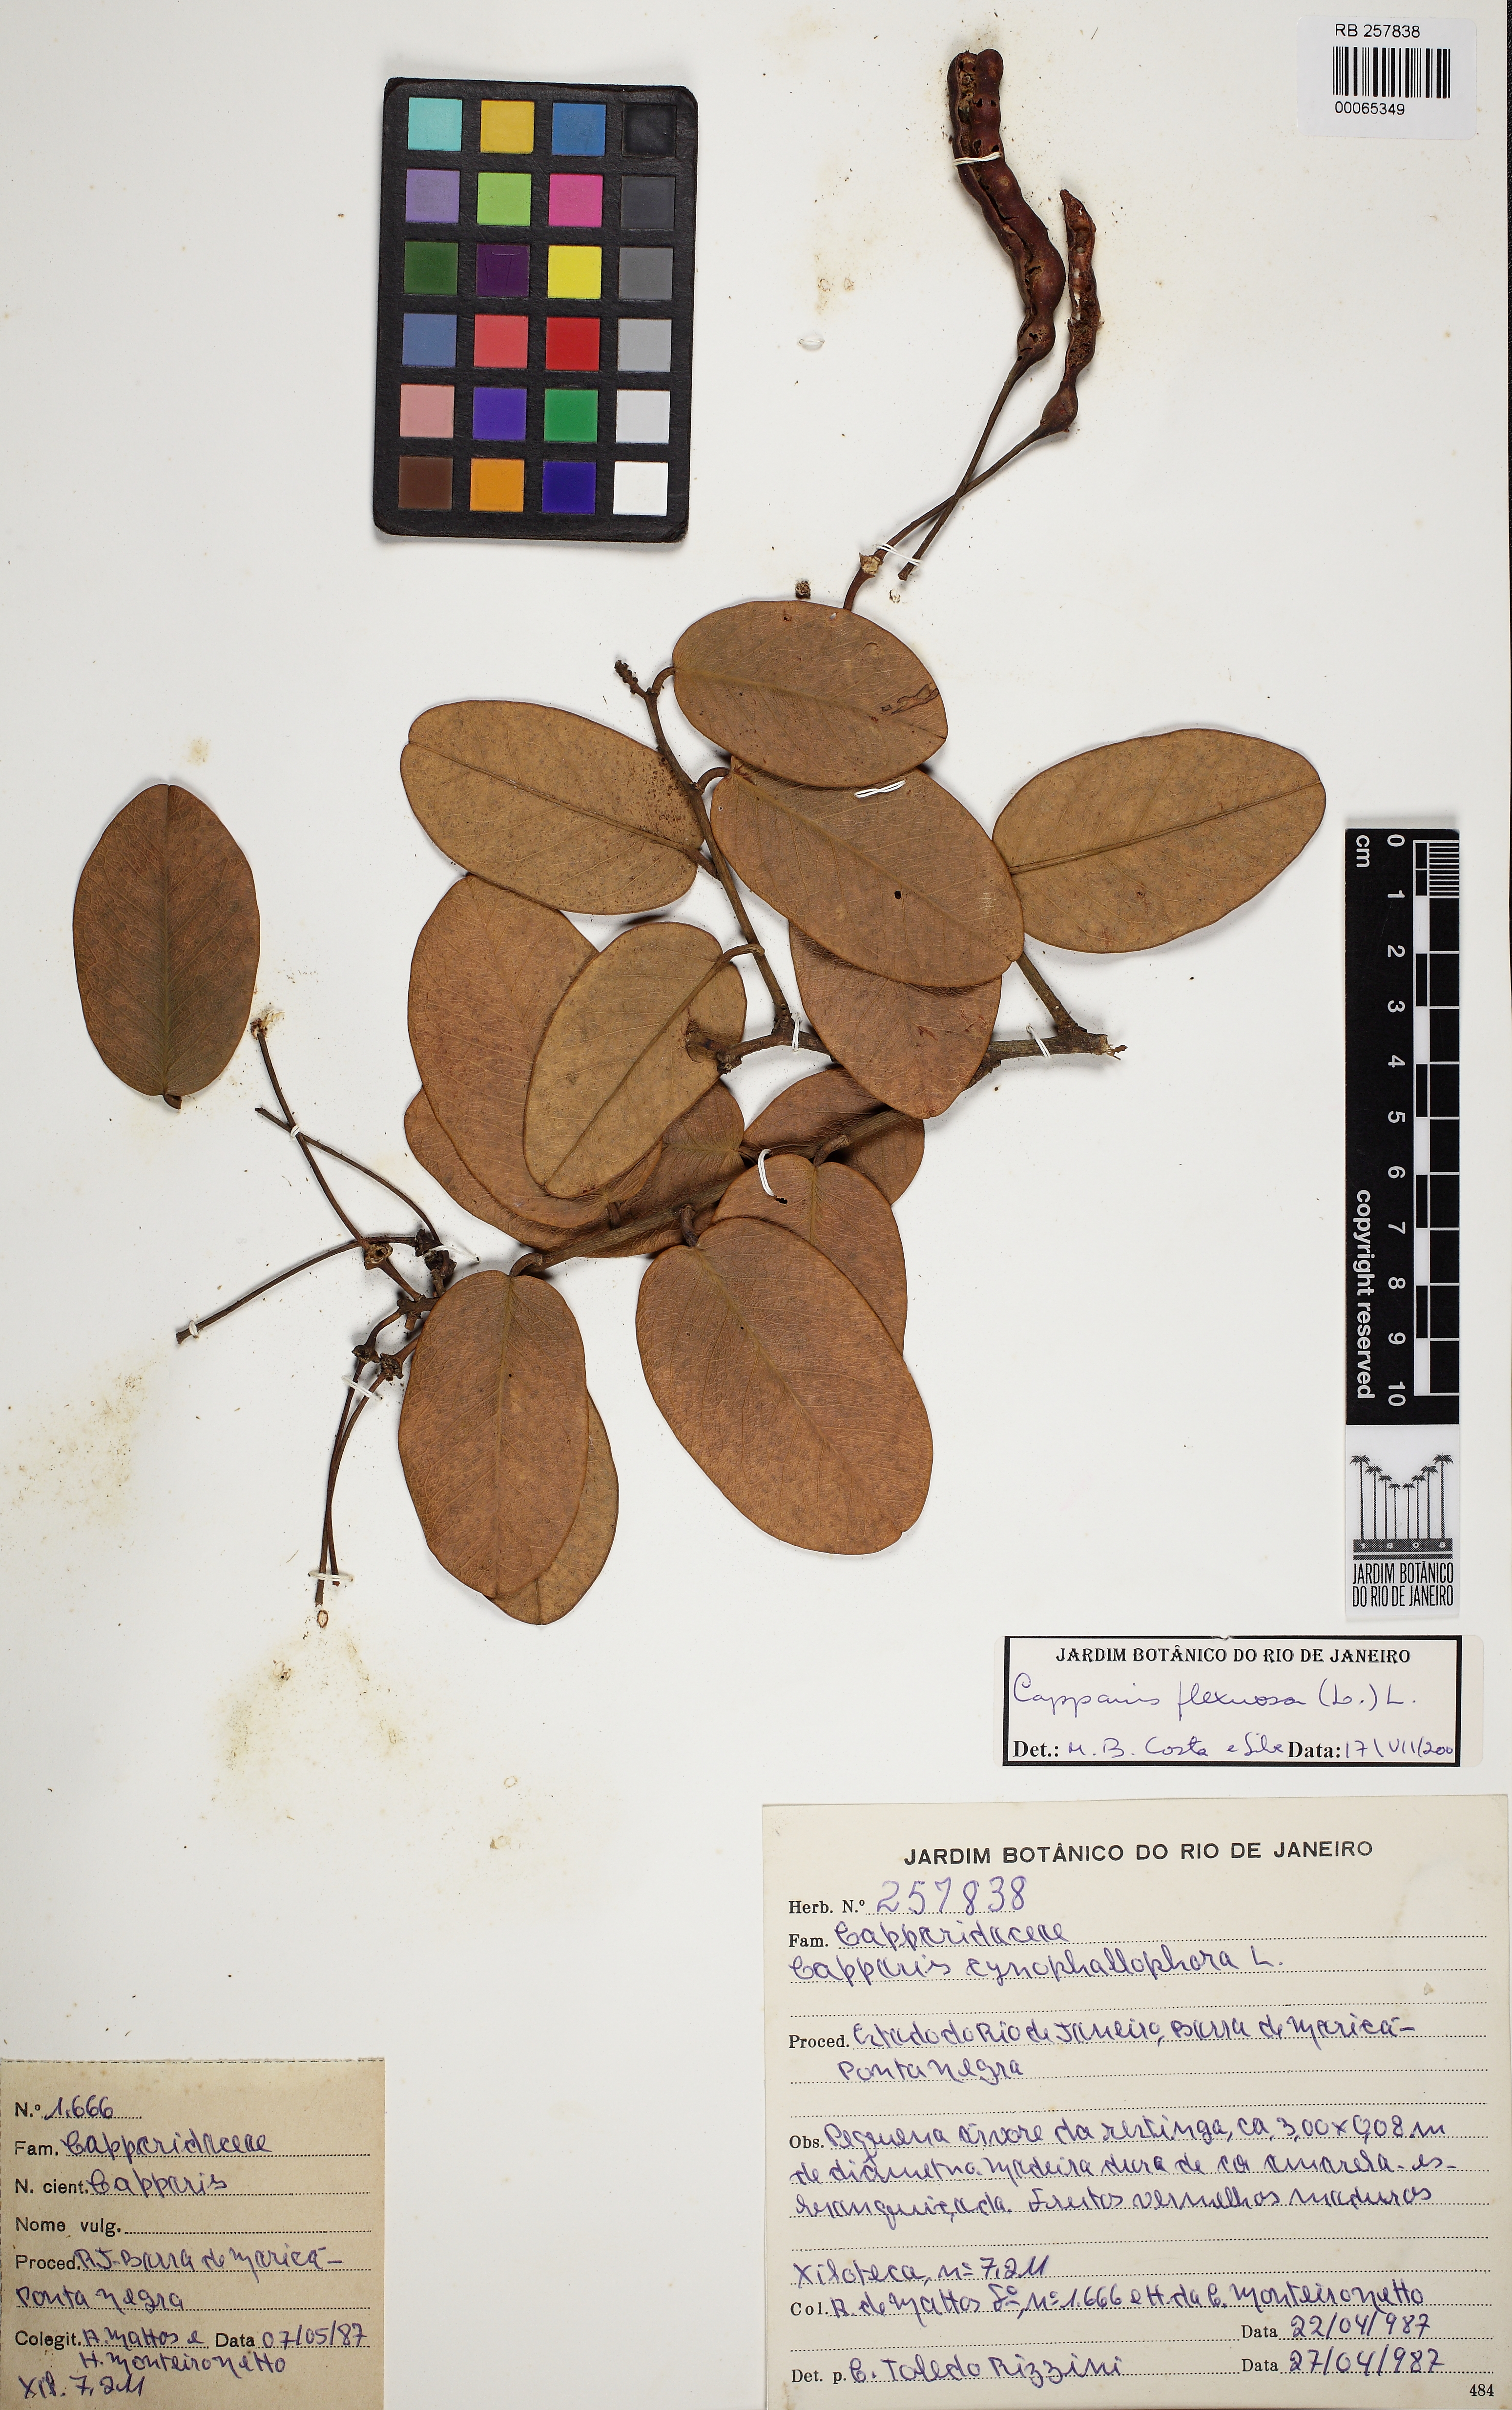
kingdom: Plantae
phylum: Tracheophyta
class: Magnoliopsida
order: Brassicales
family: Capparaceae
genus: Cynophalla
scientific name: Cynophalla flexuosa
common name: Capertree
